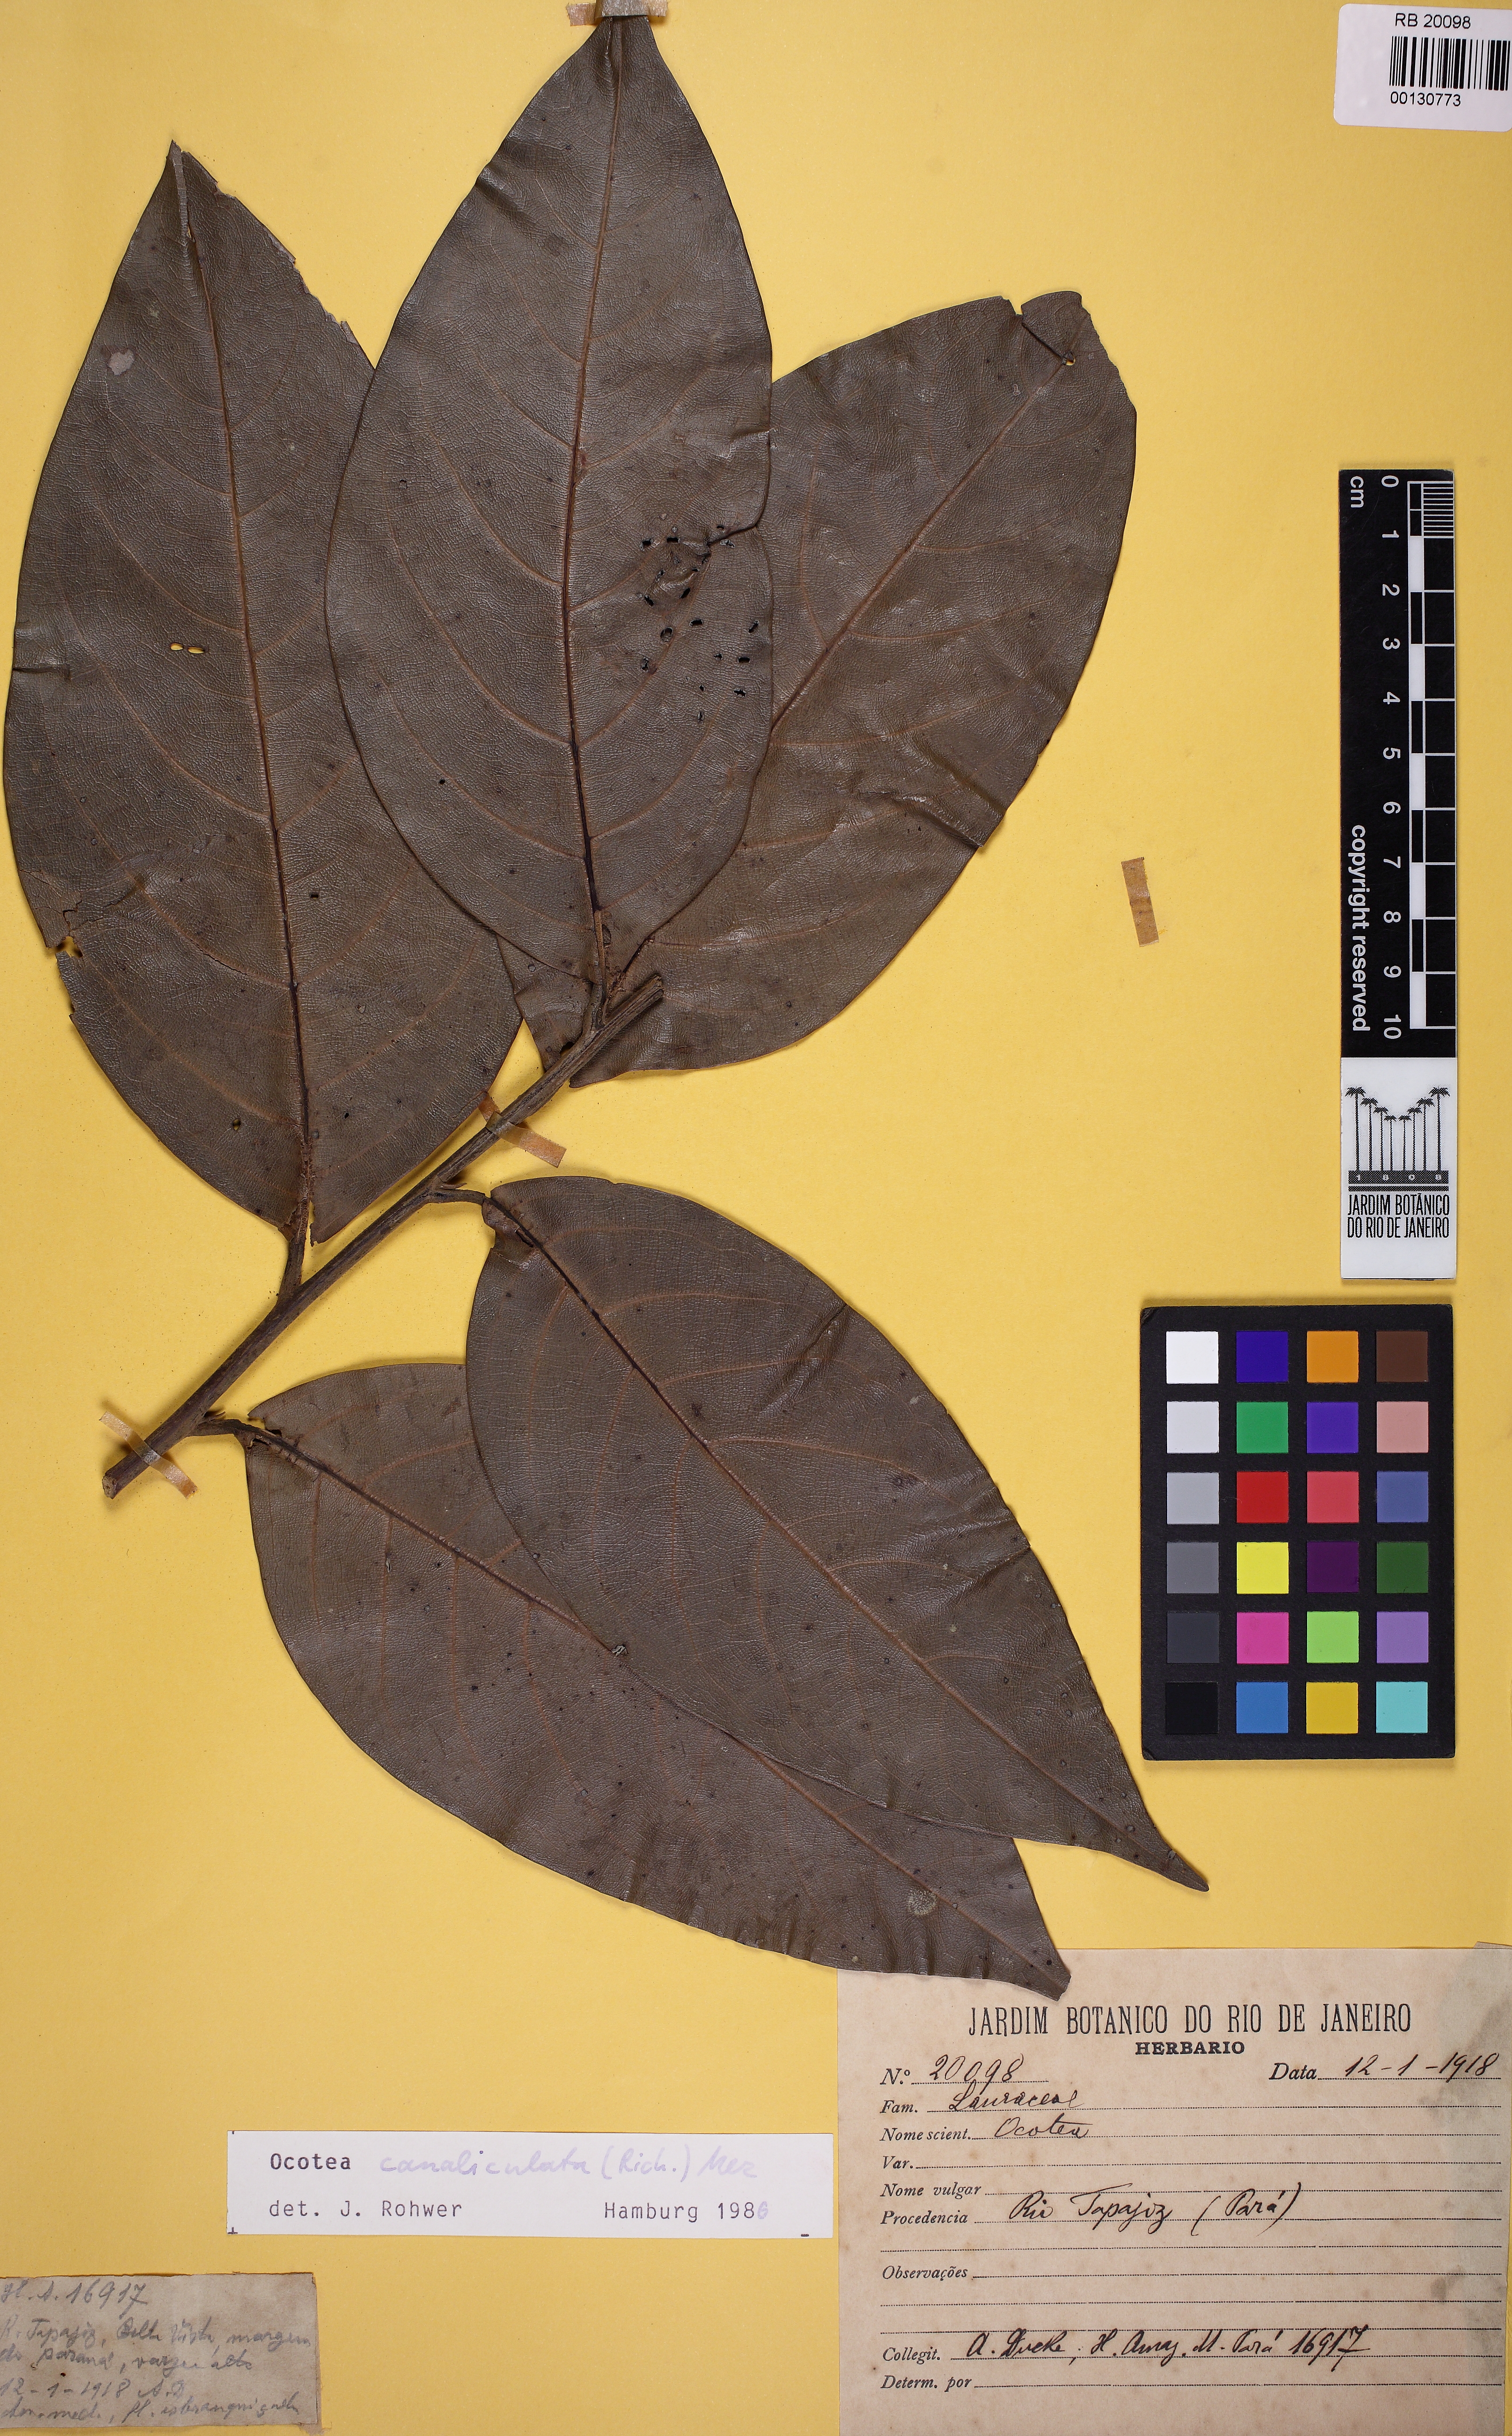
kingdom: Plantae
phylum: Tracheophyta
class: Magnoliopsida
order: Laurales
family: Lauraceae
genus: Ocotea
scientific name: Ocotea canaliculata
